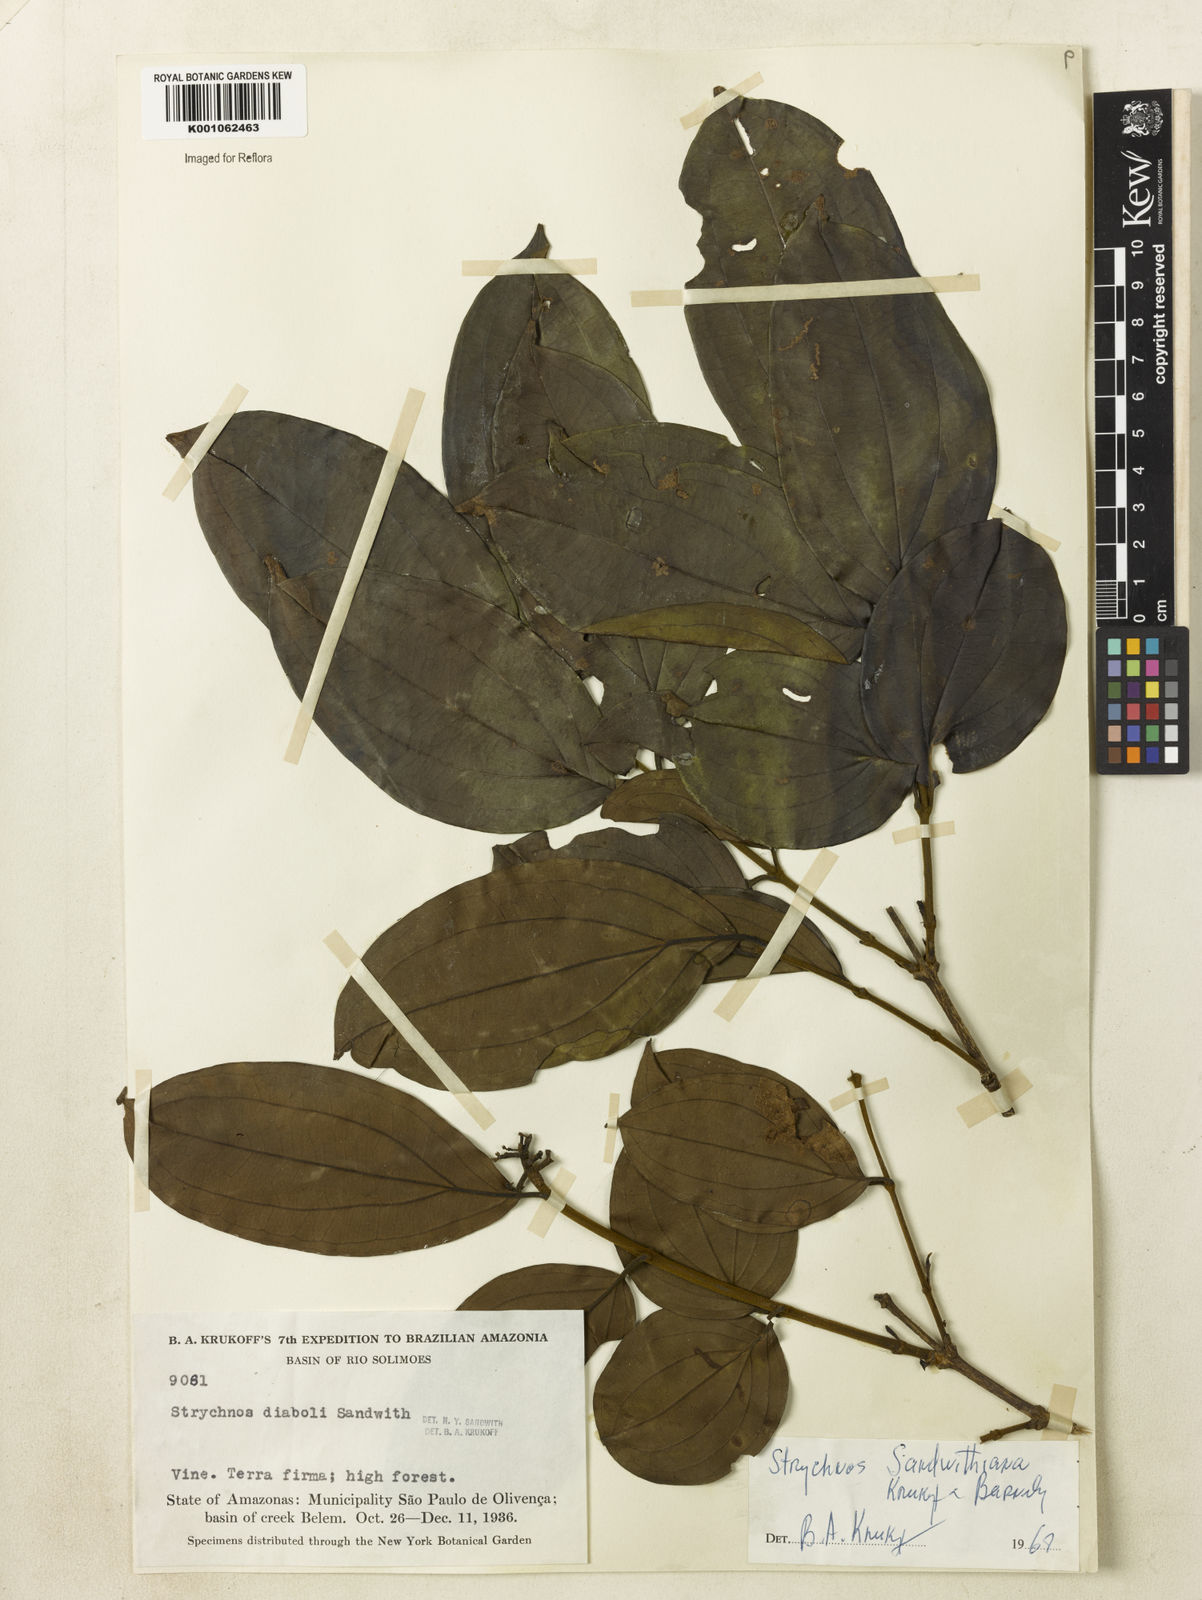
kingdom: Plantae
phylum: Tracheophyta
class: Magnoliopsida
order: Gentianales
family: Loganiaceae
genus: Strychnos
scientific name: Strychnos sandwithiana
